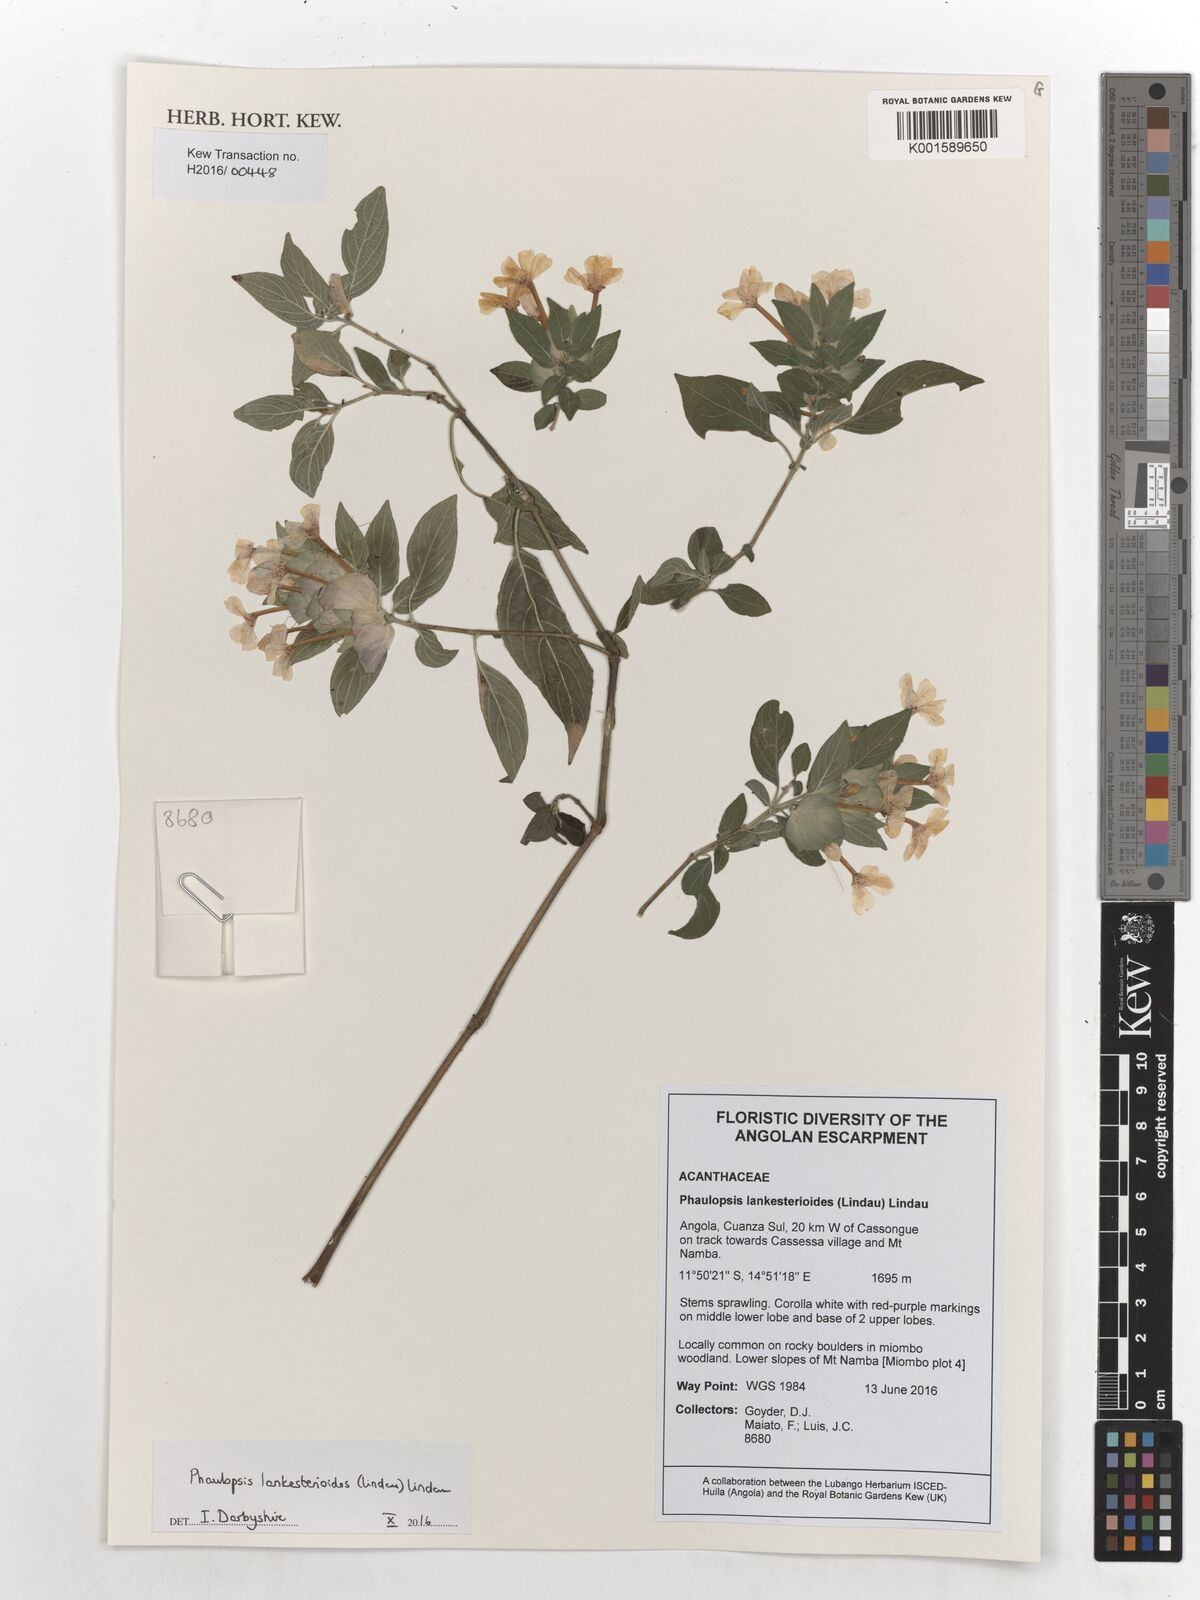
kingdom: Plantae
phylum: Tracheophyta
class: Magnoliopsida
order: Lamiales
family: Acanthaceae
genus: Phaulopsis
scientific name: Phaulopsis lankesterioides
